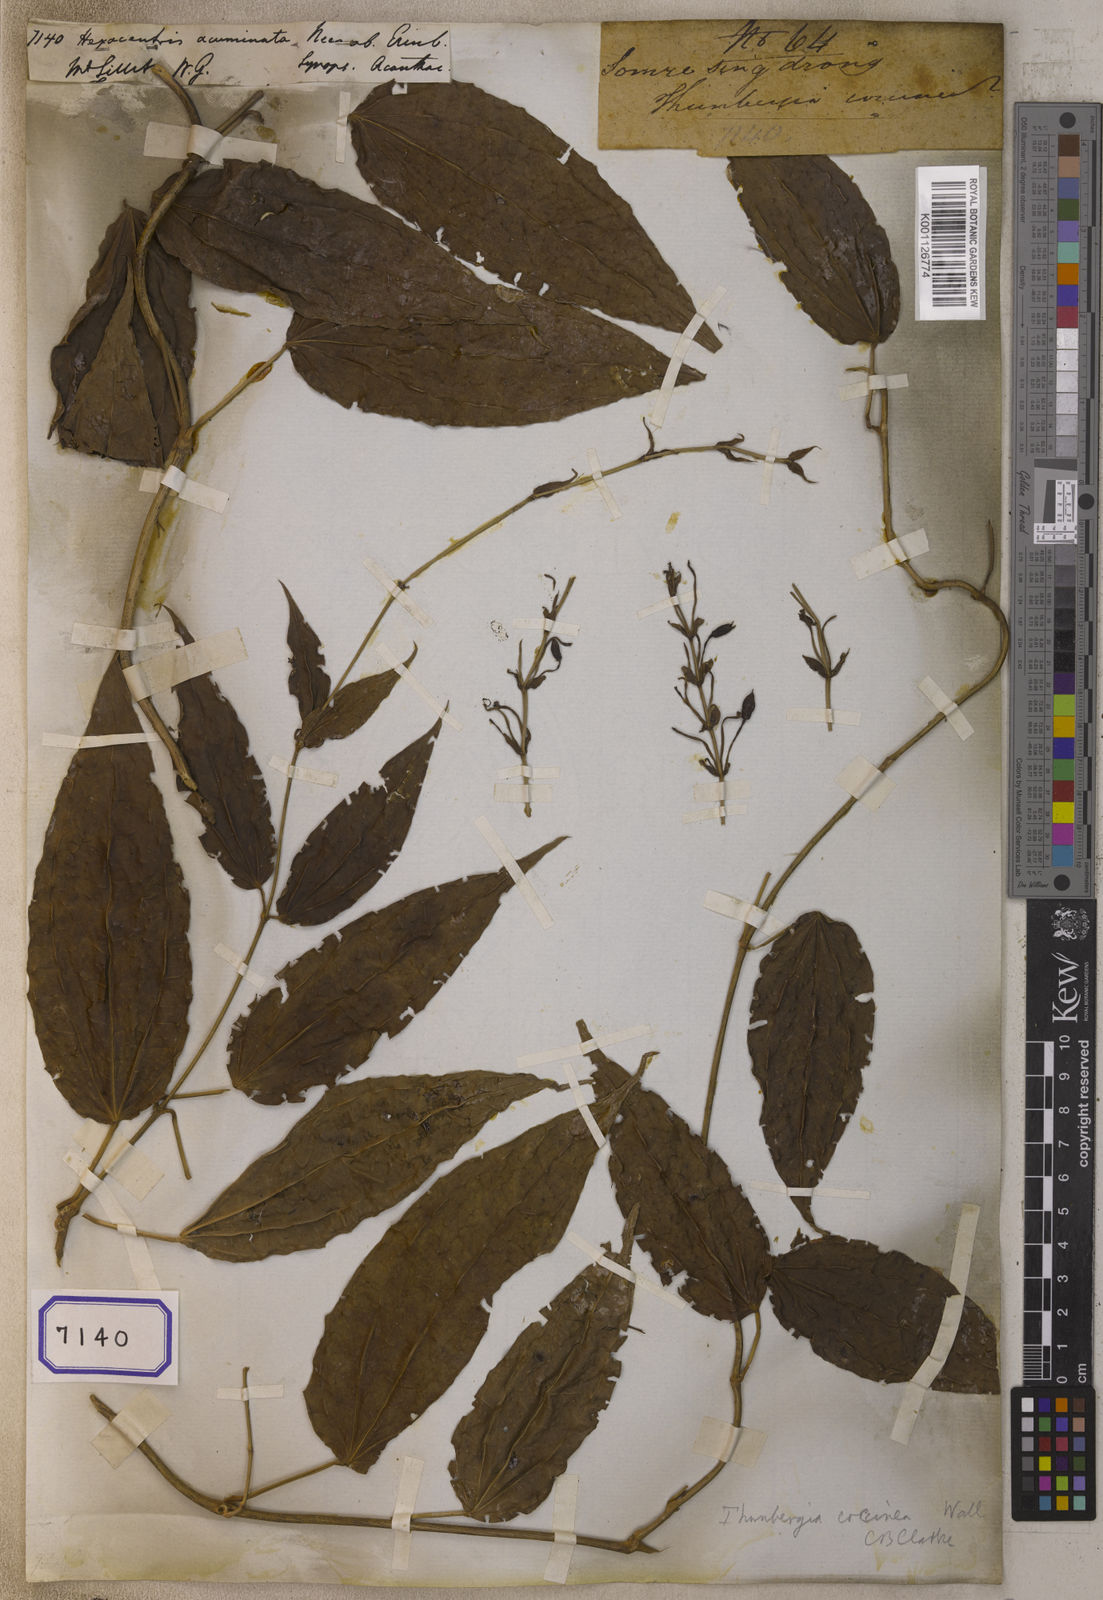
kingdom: Plantae
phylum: Tracheophyta
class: Magnoliopsida
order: Lamiales
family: Acanthaceae
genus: Thunbergia
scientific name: Thunbergia coccinea
